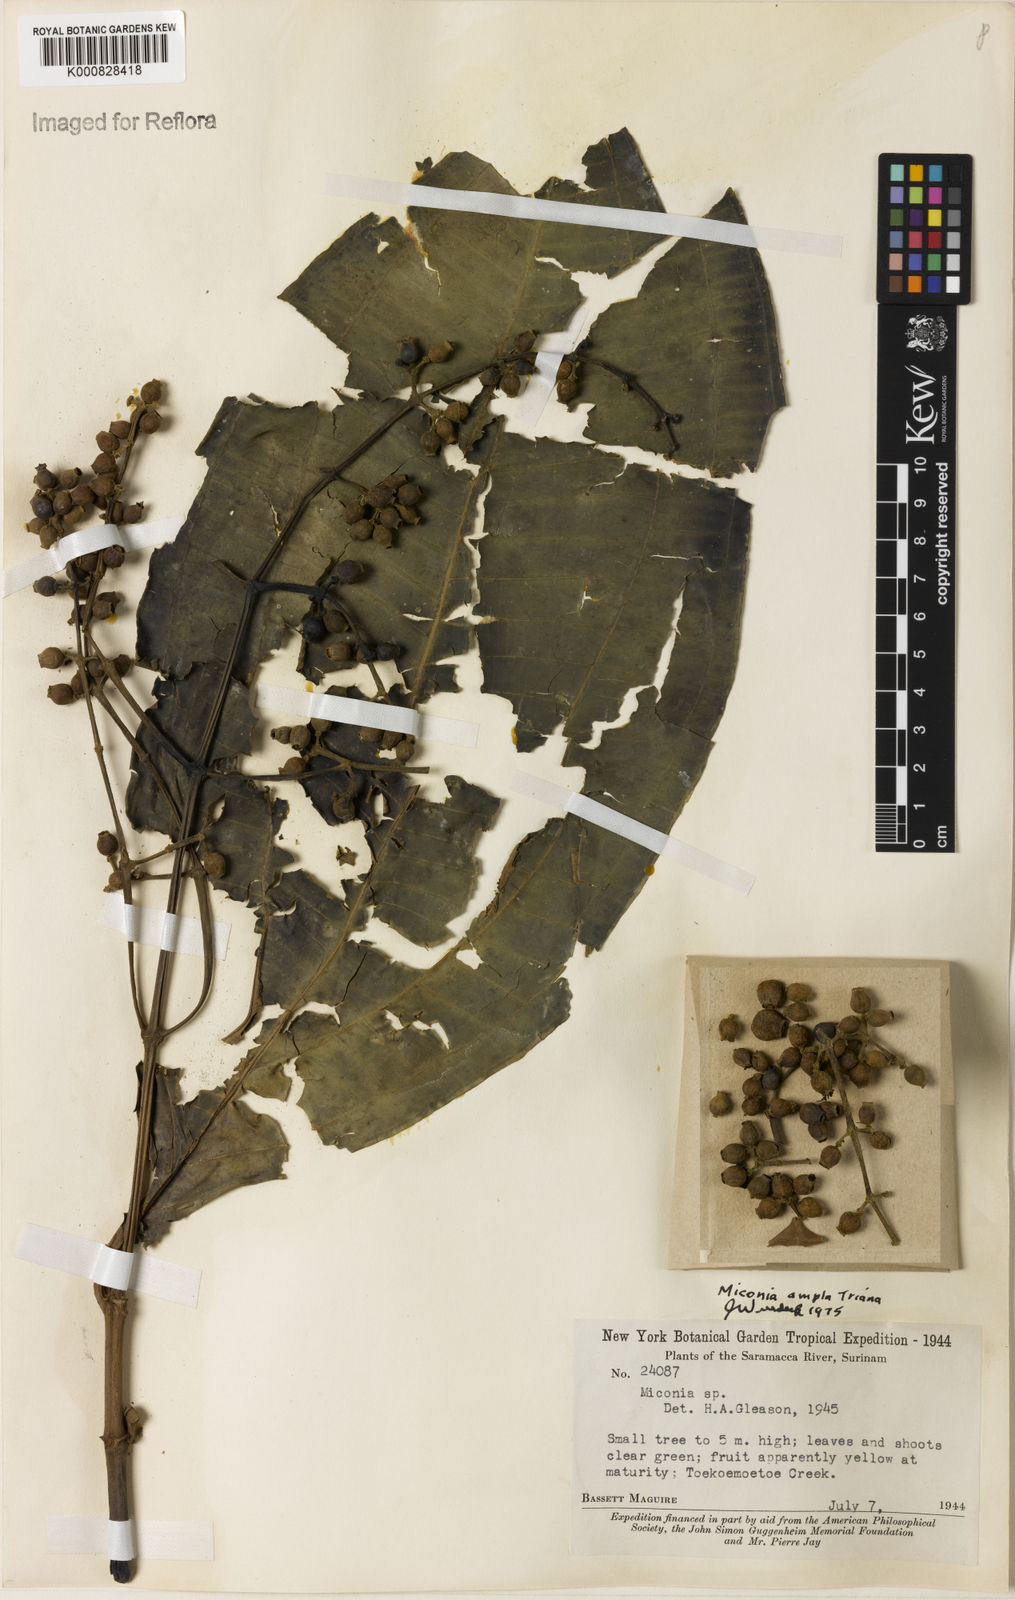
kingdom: Plantae
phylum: Tracheophyta
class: Magnoliopsida
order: Myrtales
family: Melastomataceae
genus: Miconia
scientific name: Miconia ampla
